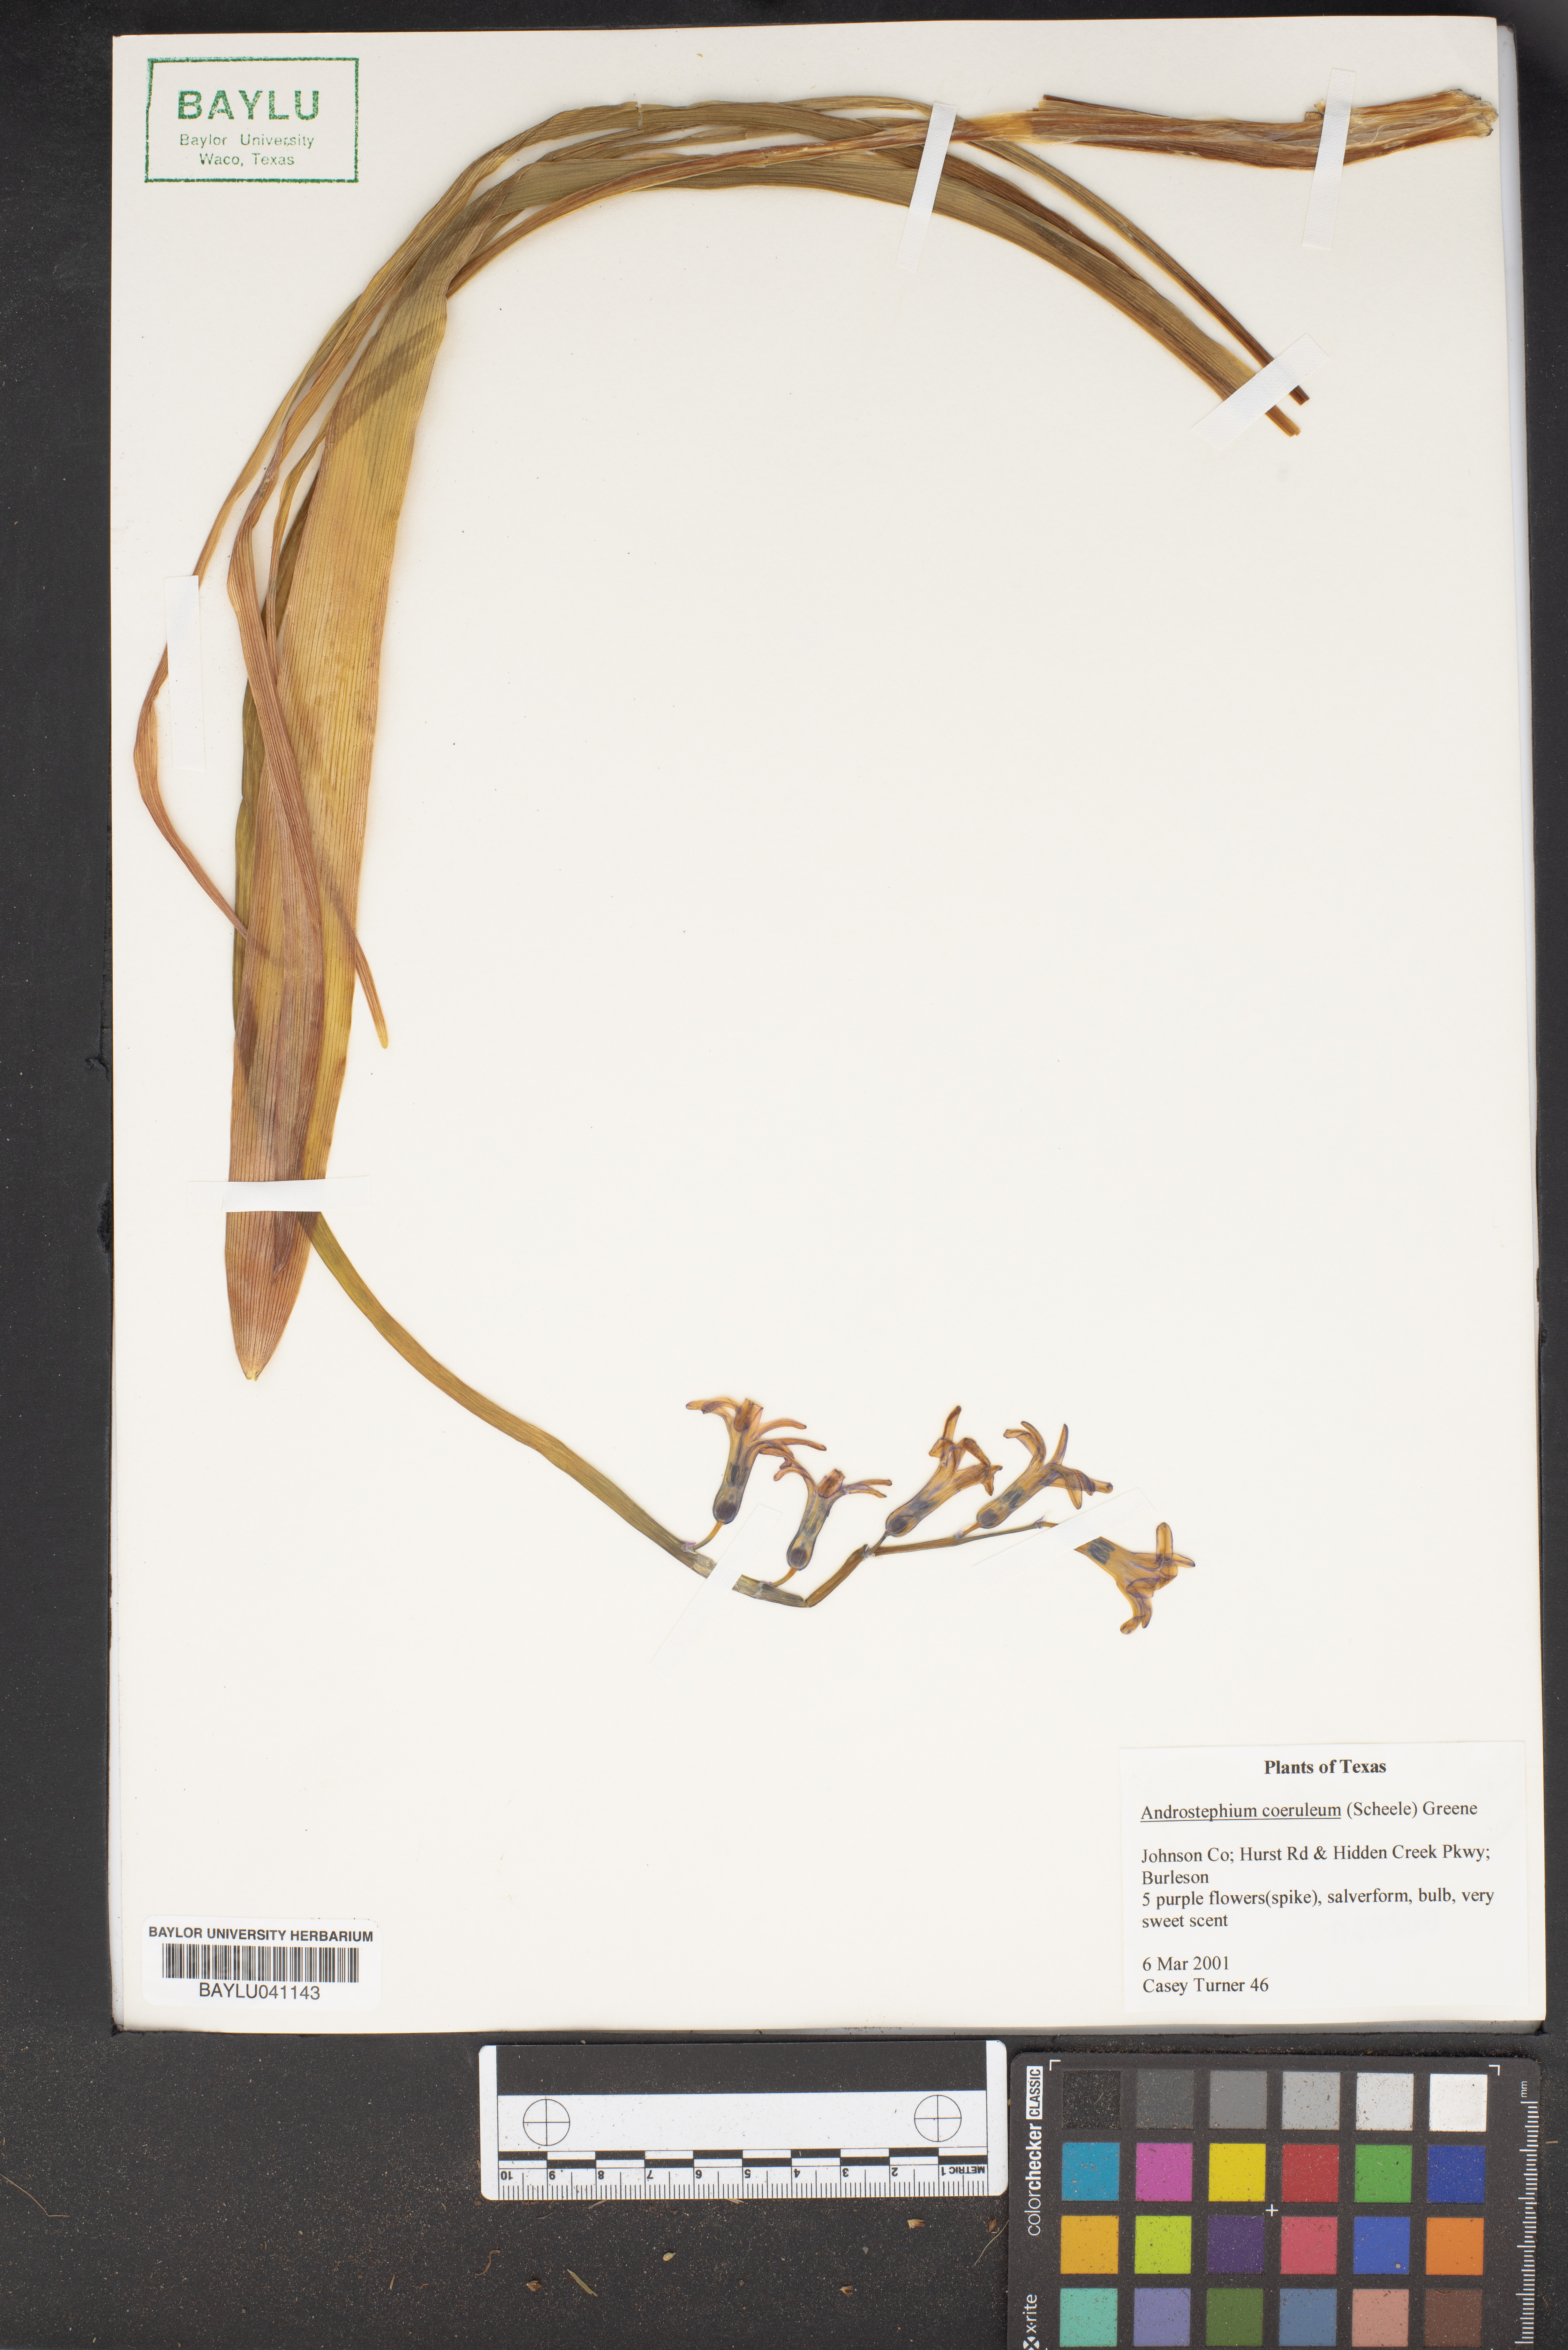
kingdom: Plantae
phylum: Tracheophyta
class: Liliopsida
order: Asparagales
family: Asparagaceae
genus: Androstephium
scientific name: Androstephium coeruleum
